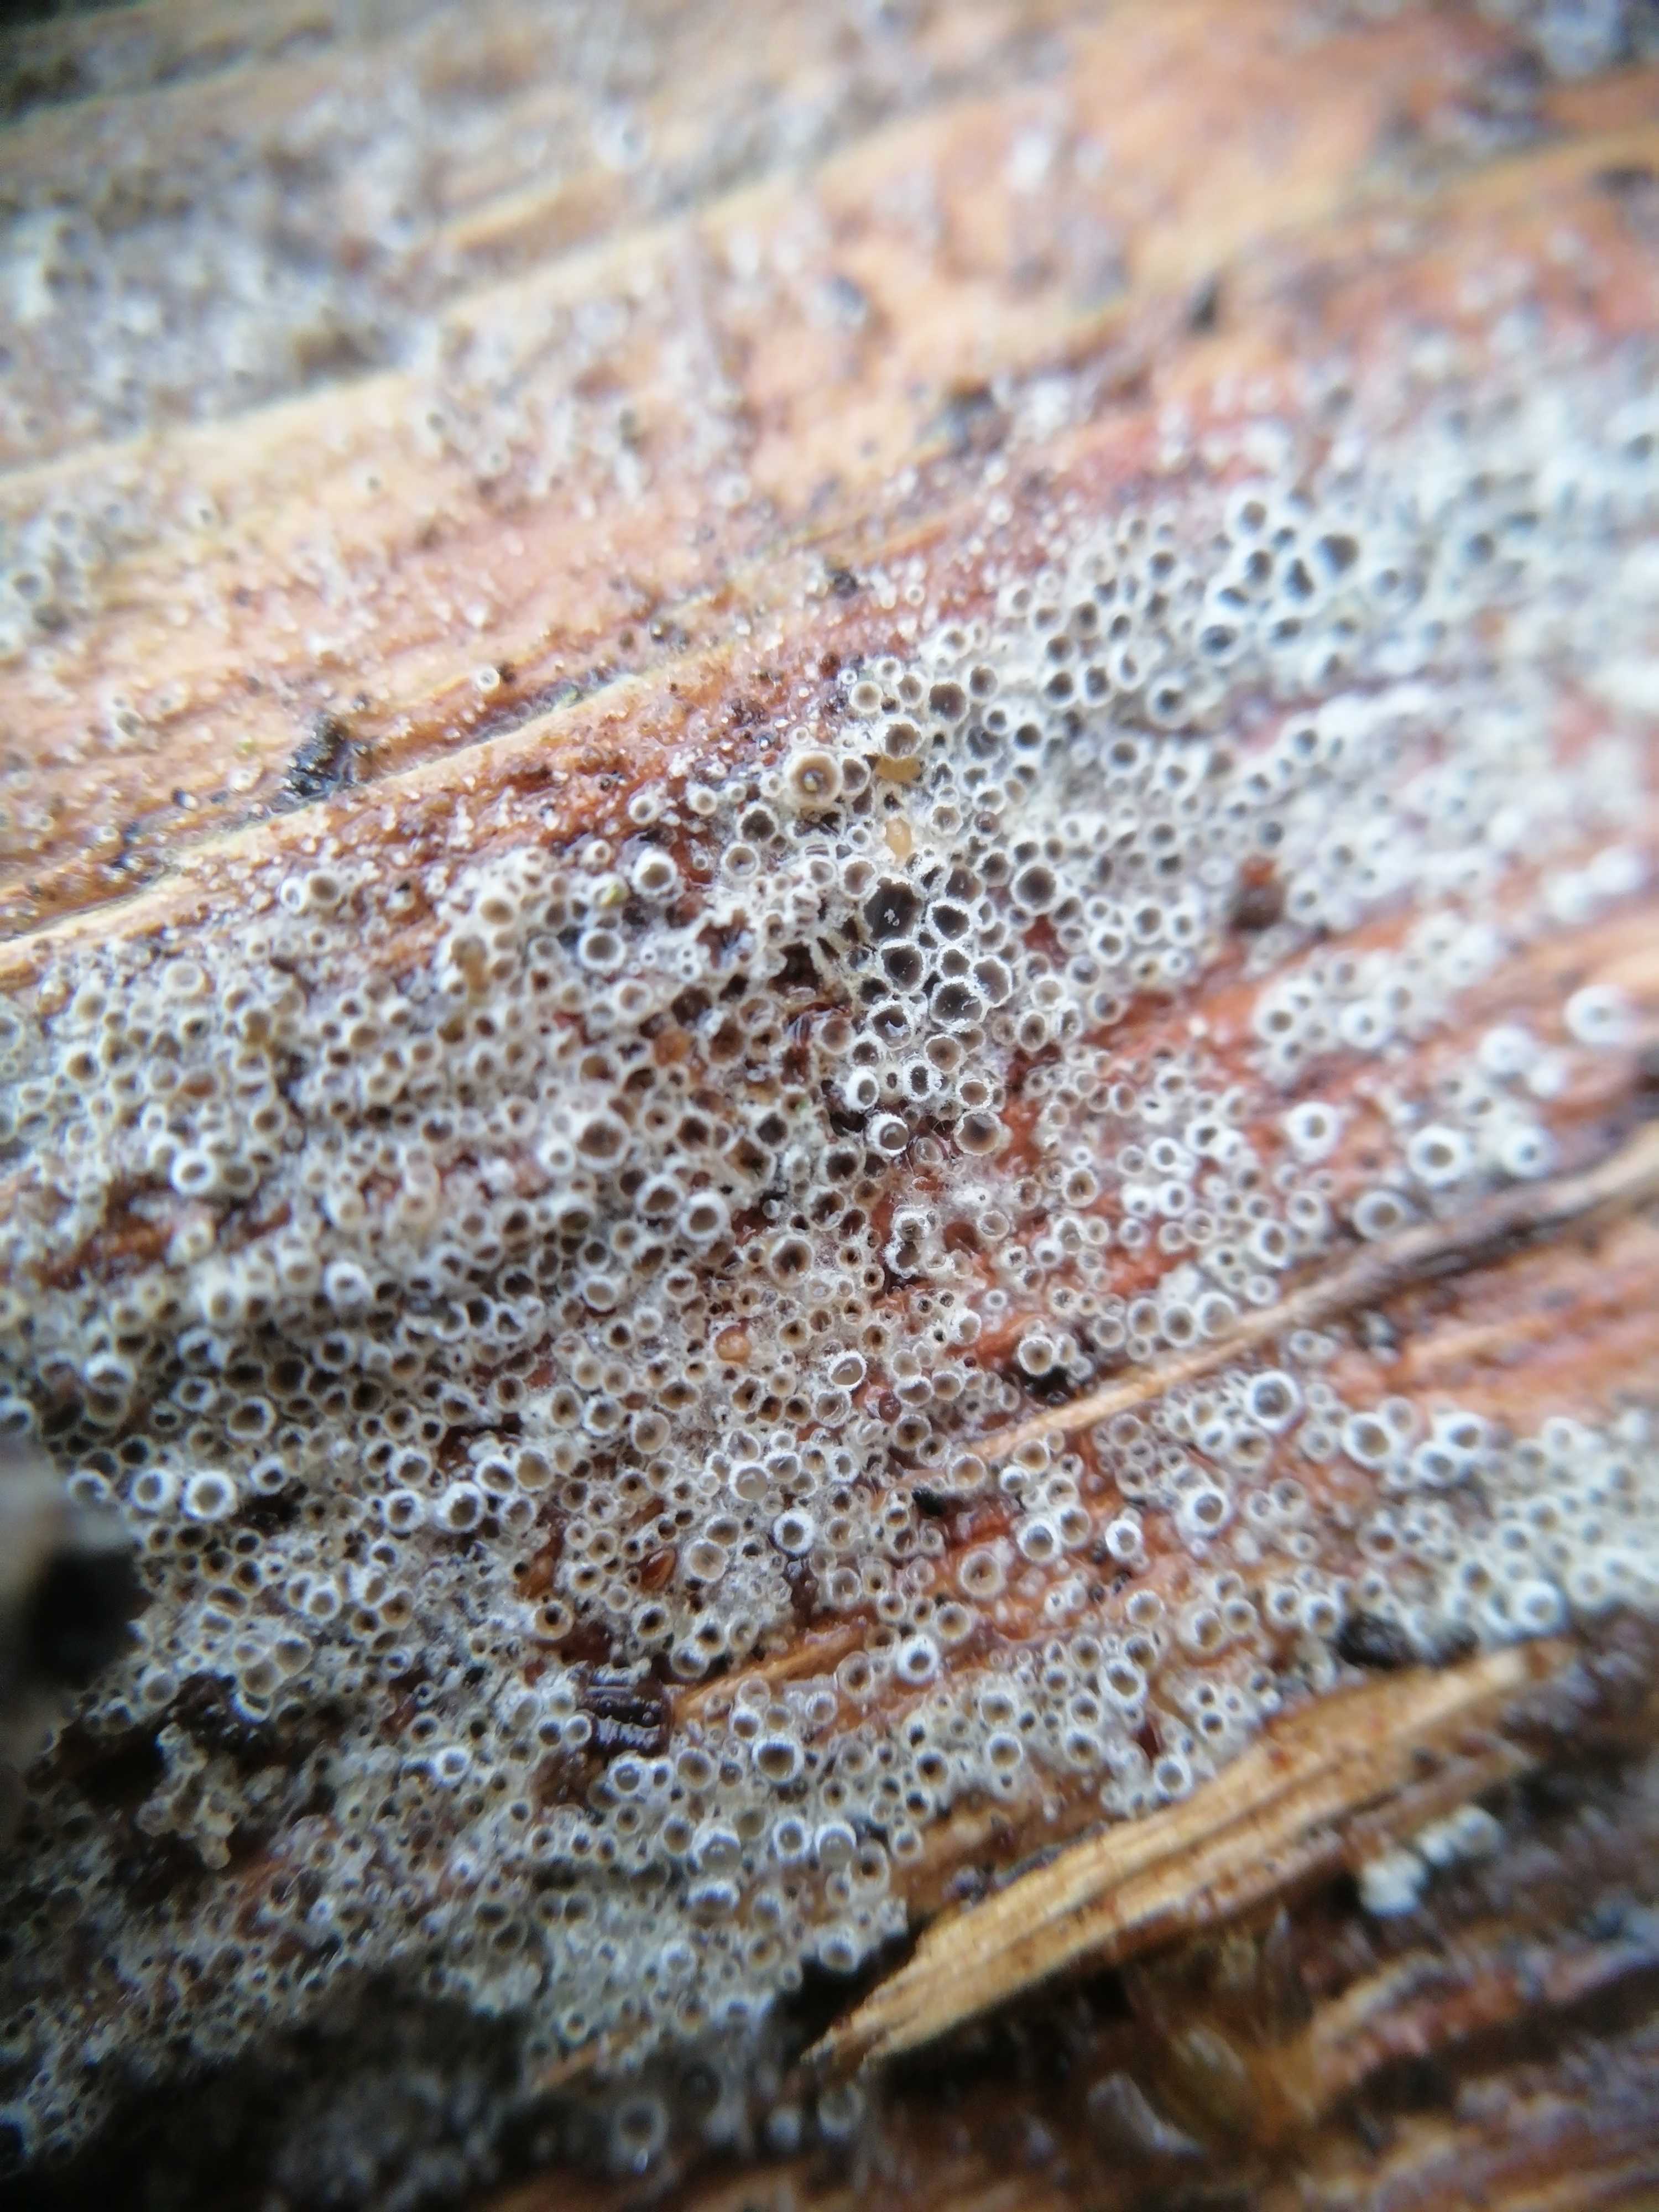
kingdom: Fungi
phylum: Ascomycota
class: Leotiomycetes
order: Helotiales
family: Arachnopezizaceae
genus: Eriopezia
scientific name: Eriopezia caesia
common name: ege-spindskive
